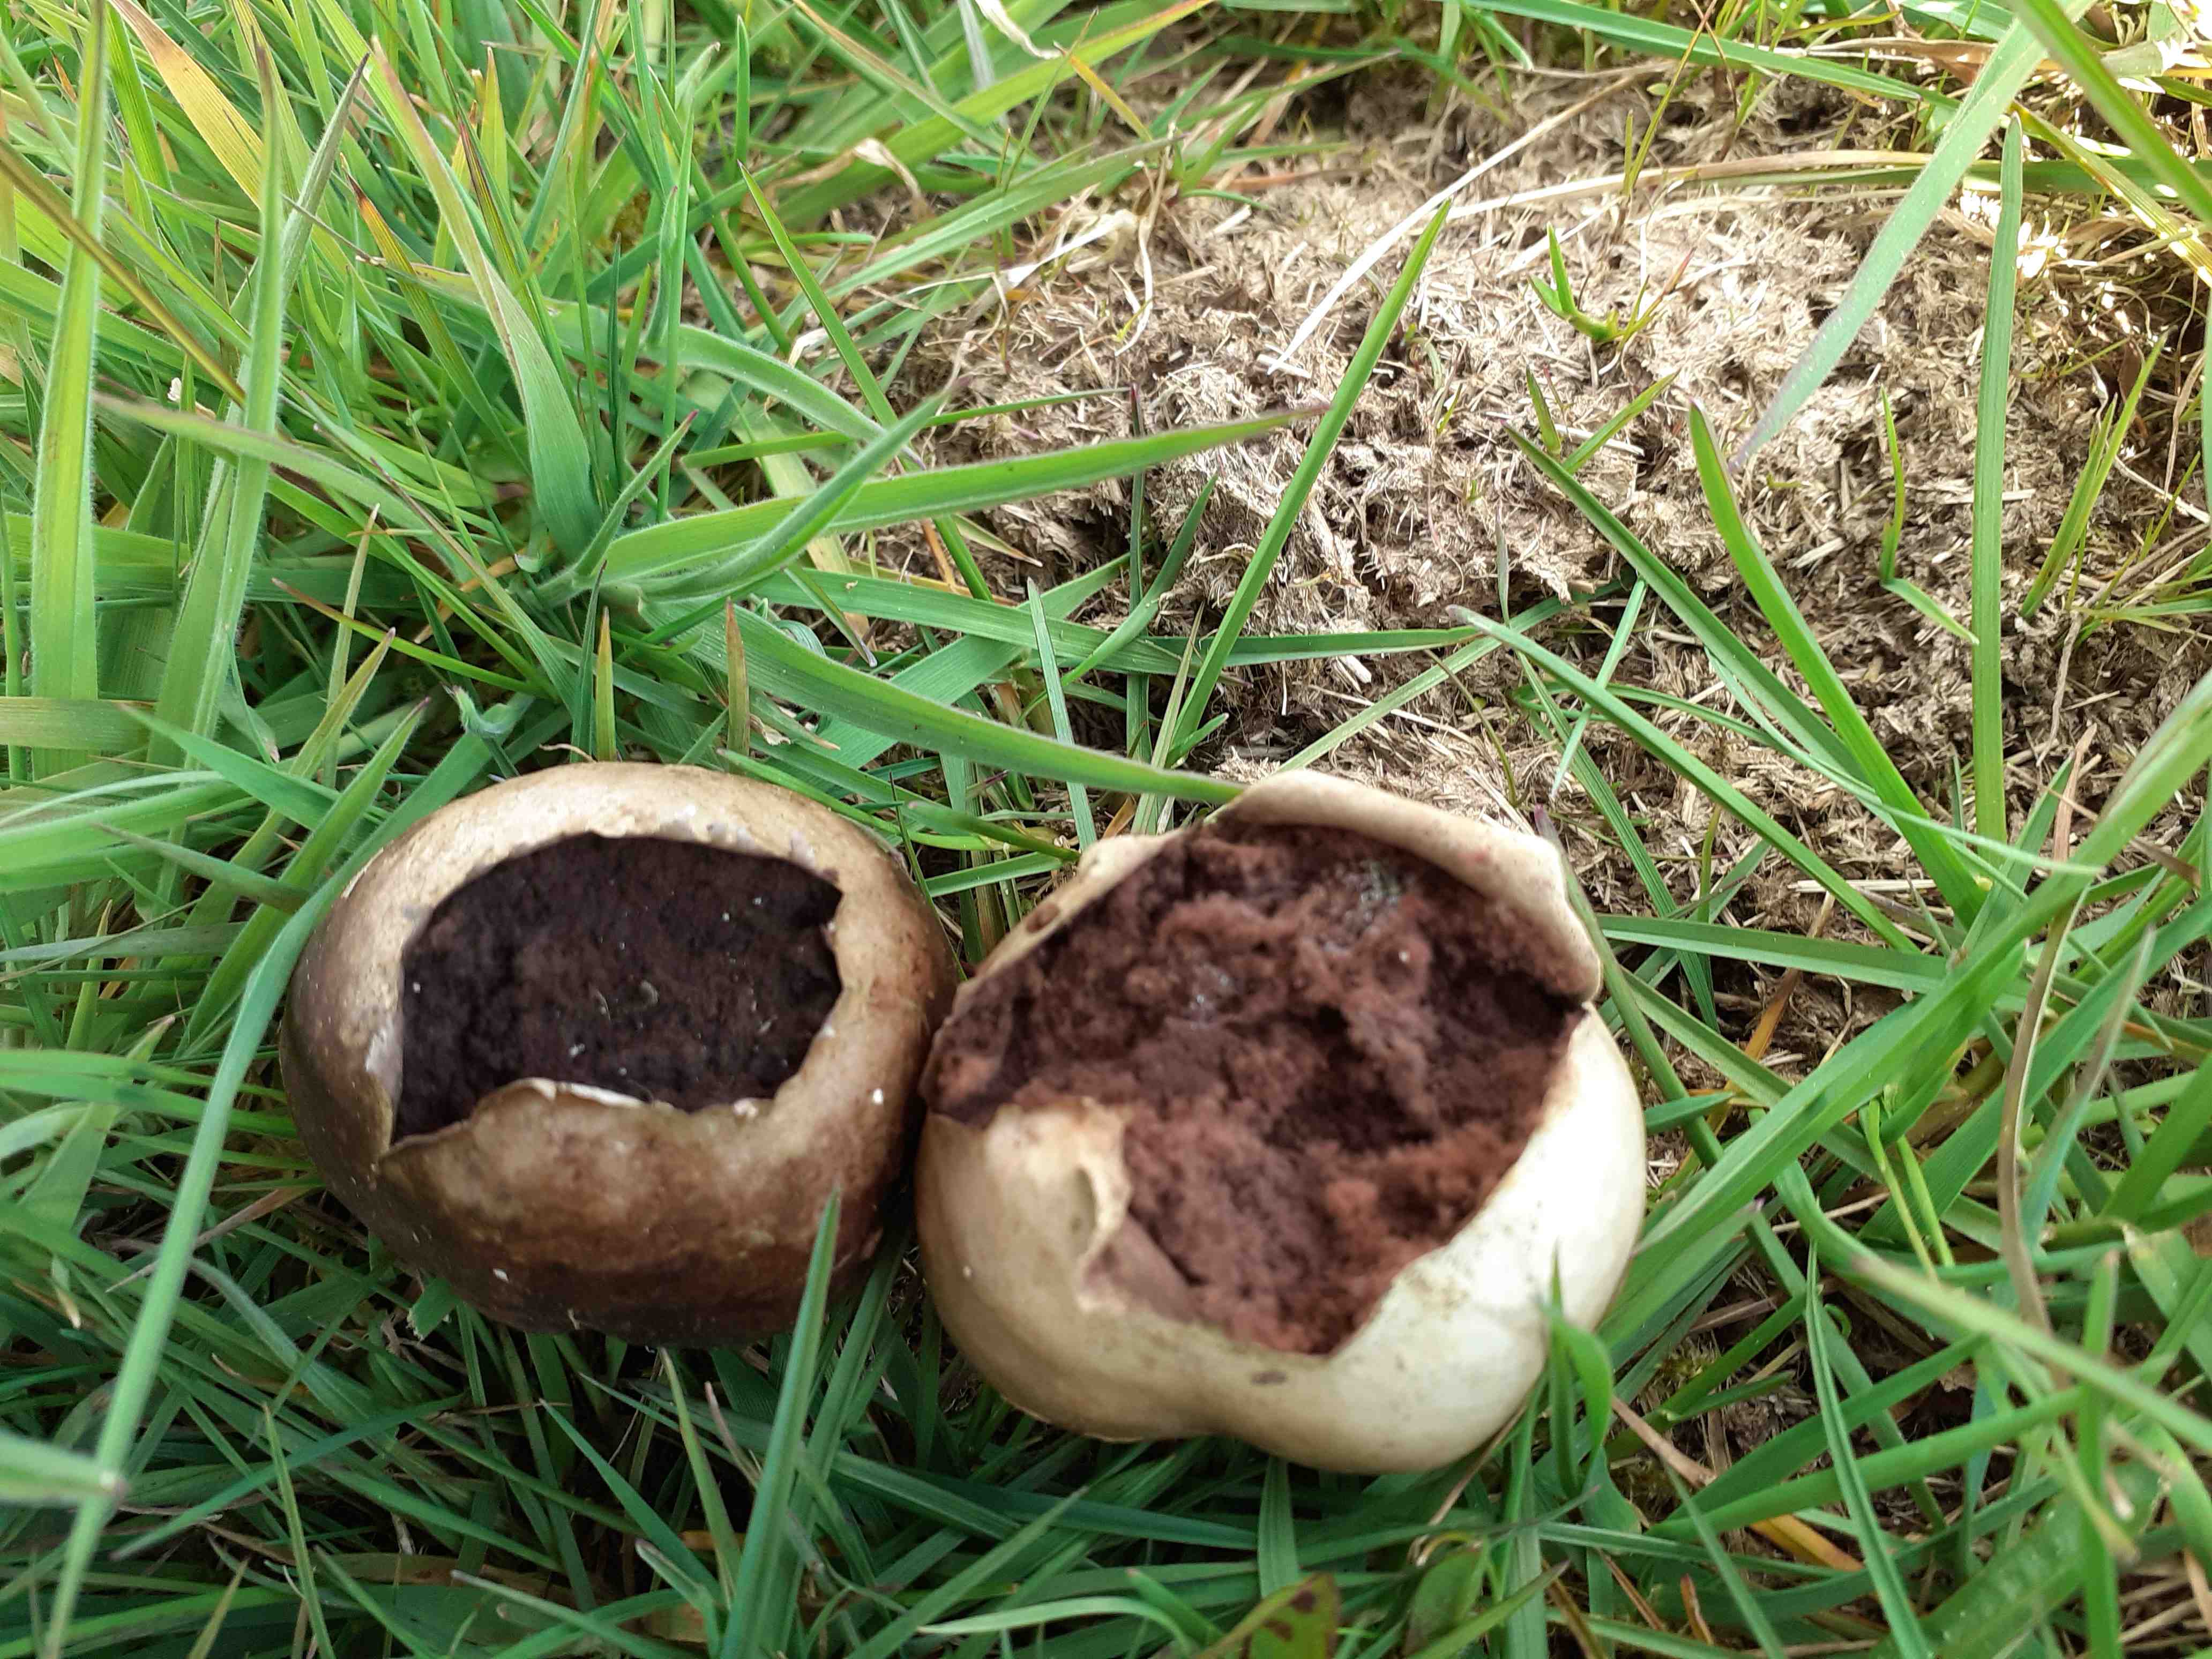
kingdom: Fungi
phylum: Basidiomycota
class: Agaricomycetes
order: Agaricales
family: Lycoperdaceae
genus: Bovista
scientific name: Bovista nigrescens
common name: sortagtig bovist
